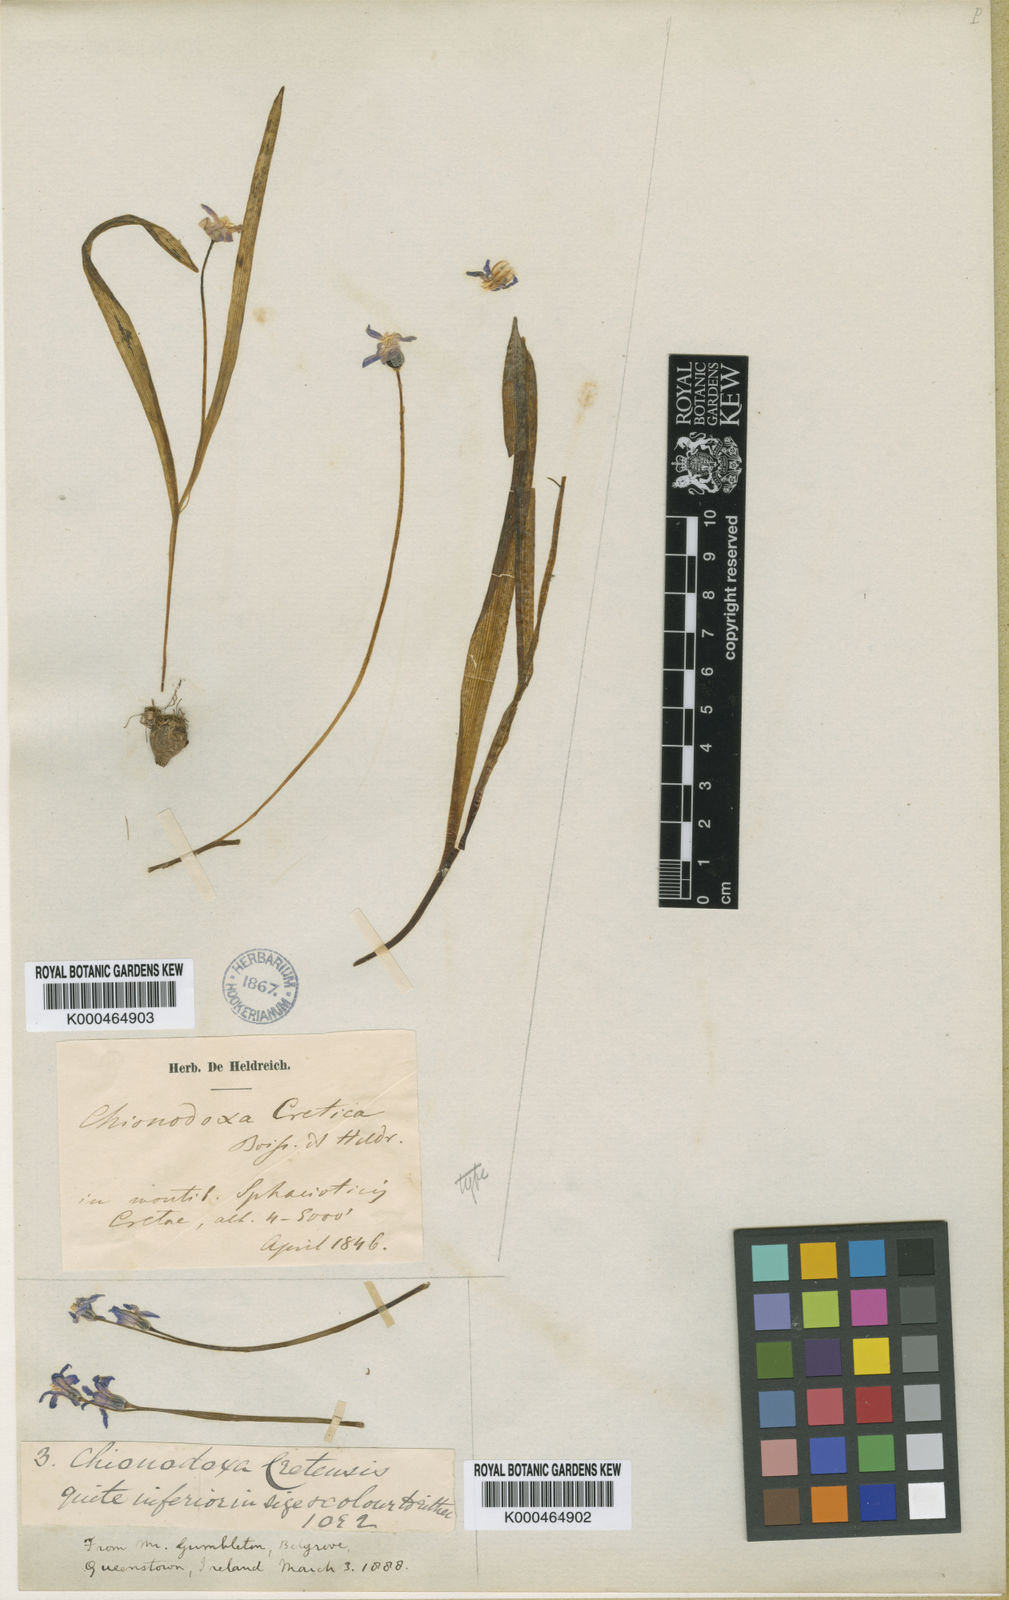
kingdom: Plantae
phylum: Tracheophyta
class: Liliopsida
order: Asparagales
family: Asparagaceae
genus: Scilla
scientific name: Scilla cretica
